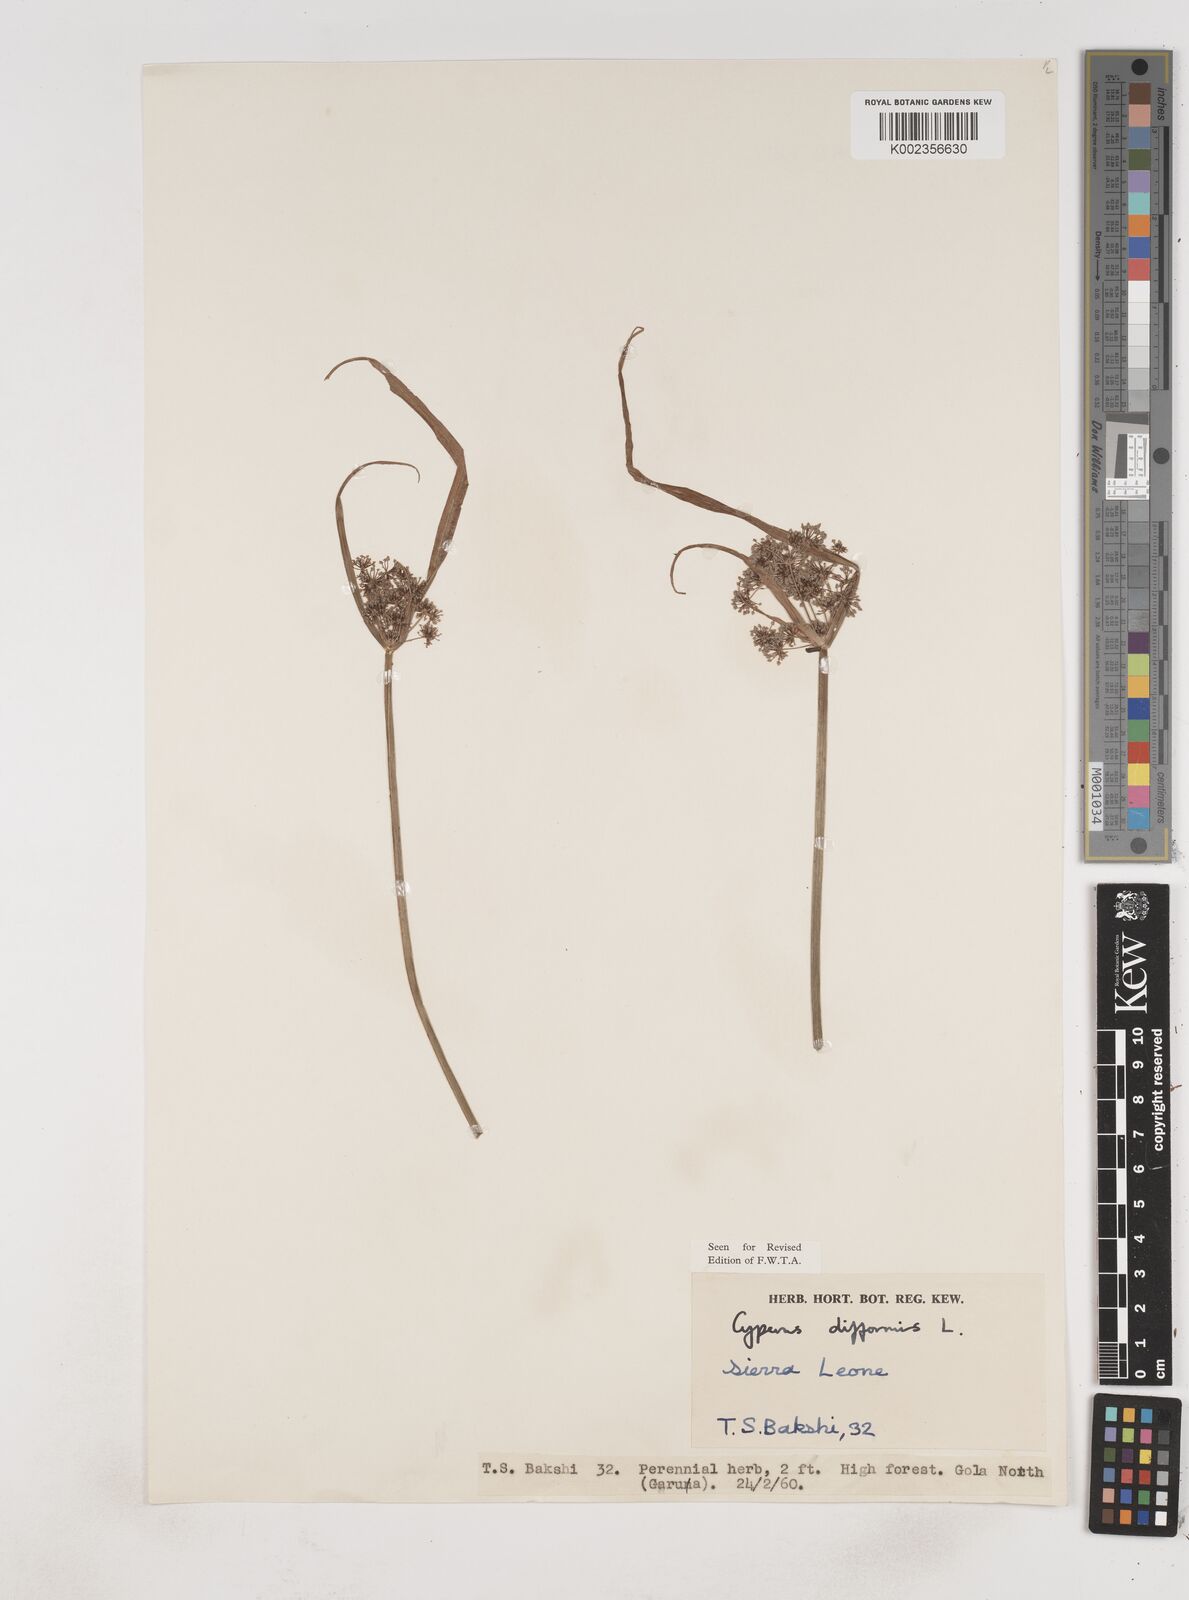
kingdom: Plantae
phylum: Tracheophyta
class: Liliopsida
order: Poales
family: Cyperaceae
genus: Cyperus
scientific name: Cyperus difformis
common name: Variable flatsedge
